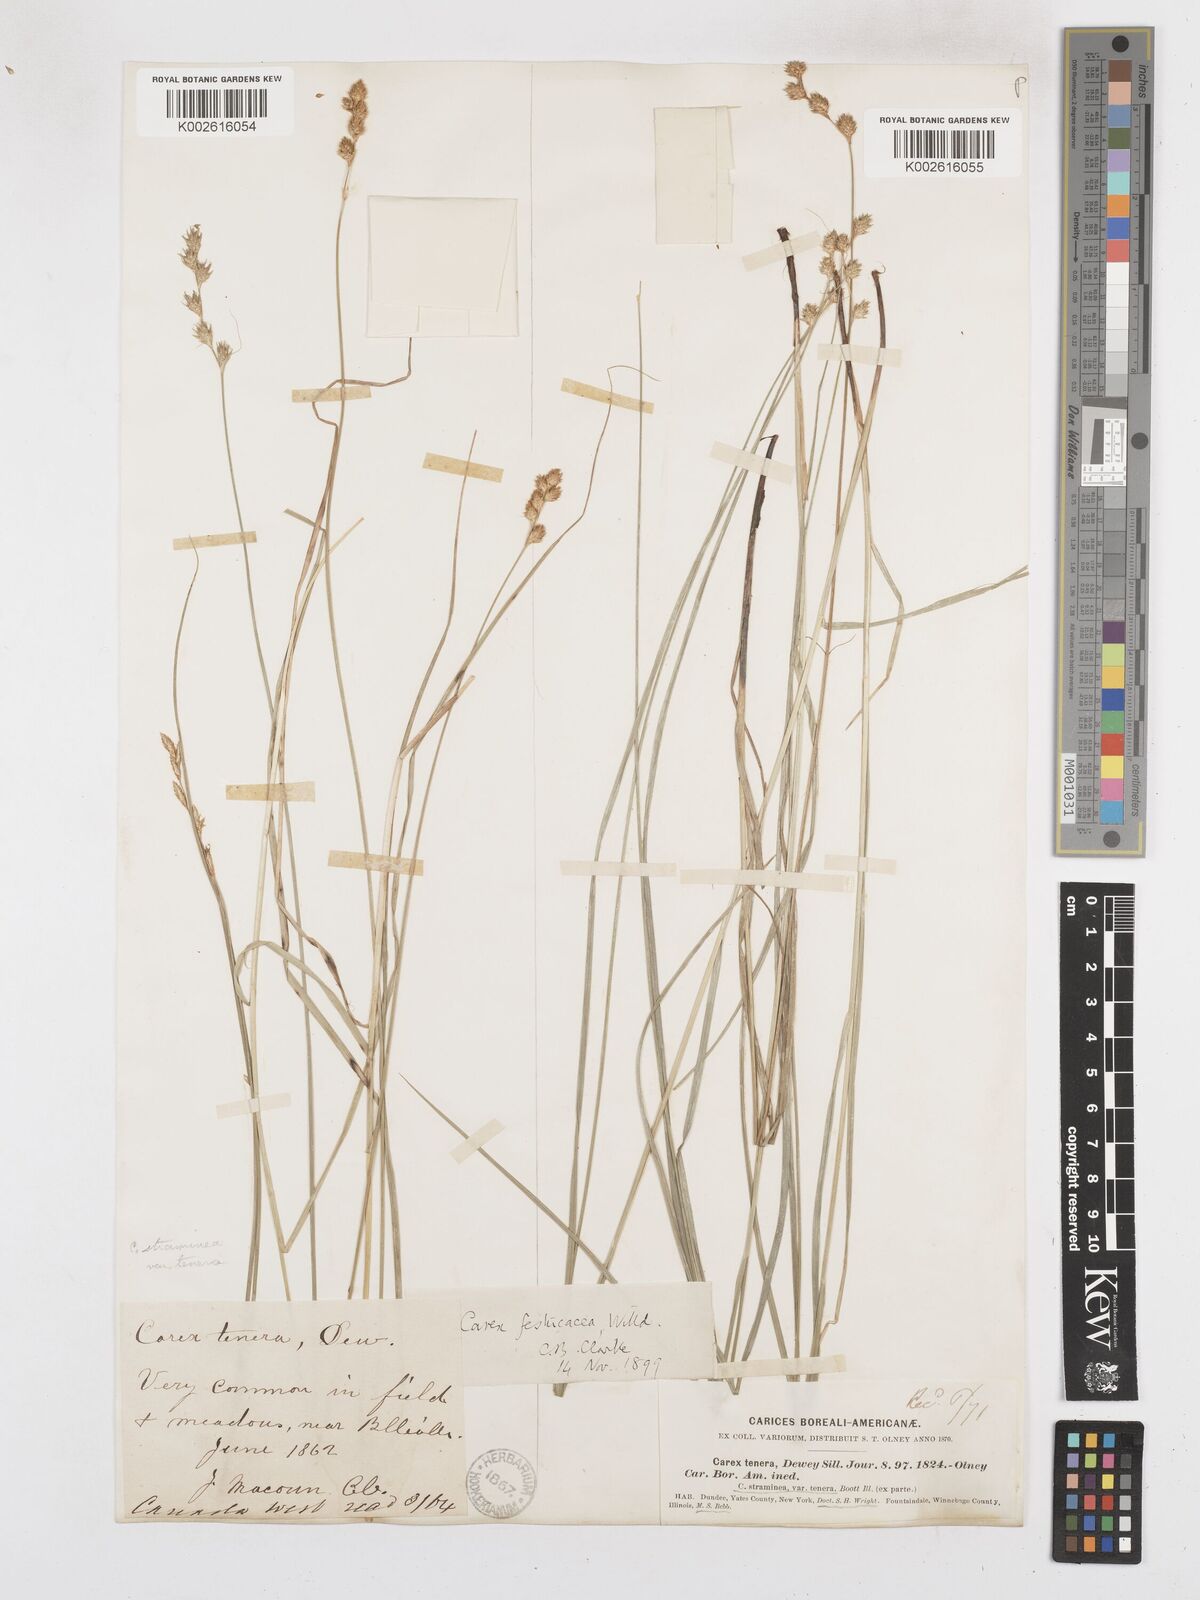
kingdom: Plantae
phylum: Tracheophyta
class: Liliopsida
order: Poales
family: Cyperaceae
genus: Carex
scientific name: Carex festucacea
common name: Fescue oval sedge
